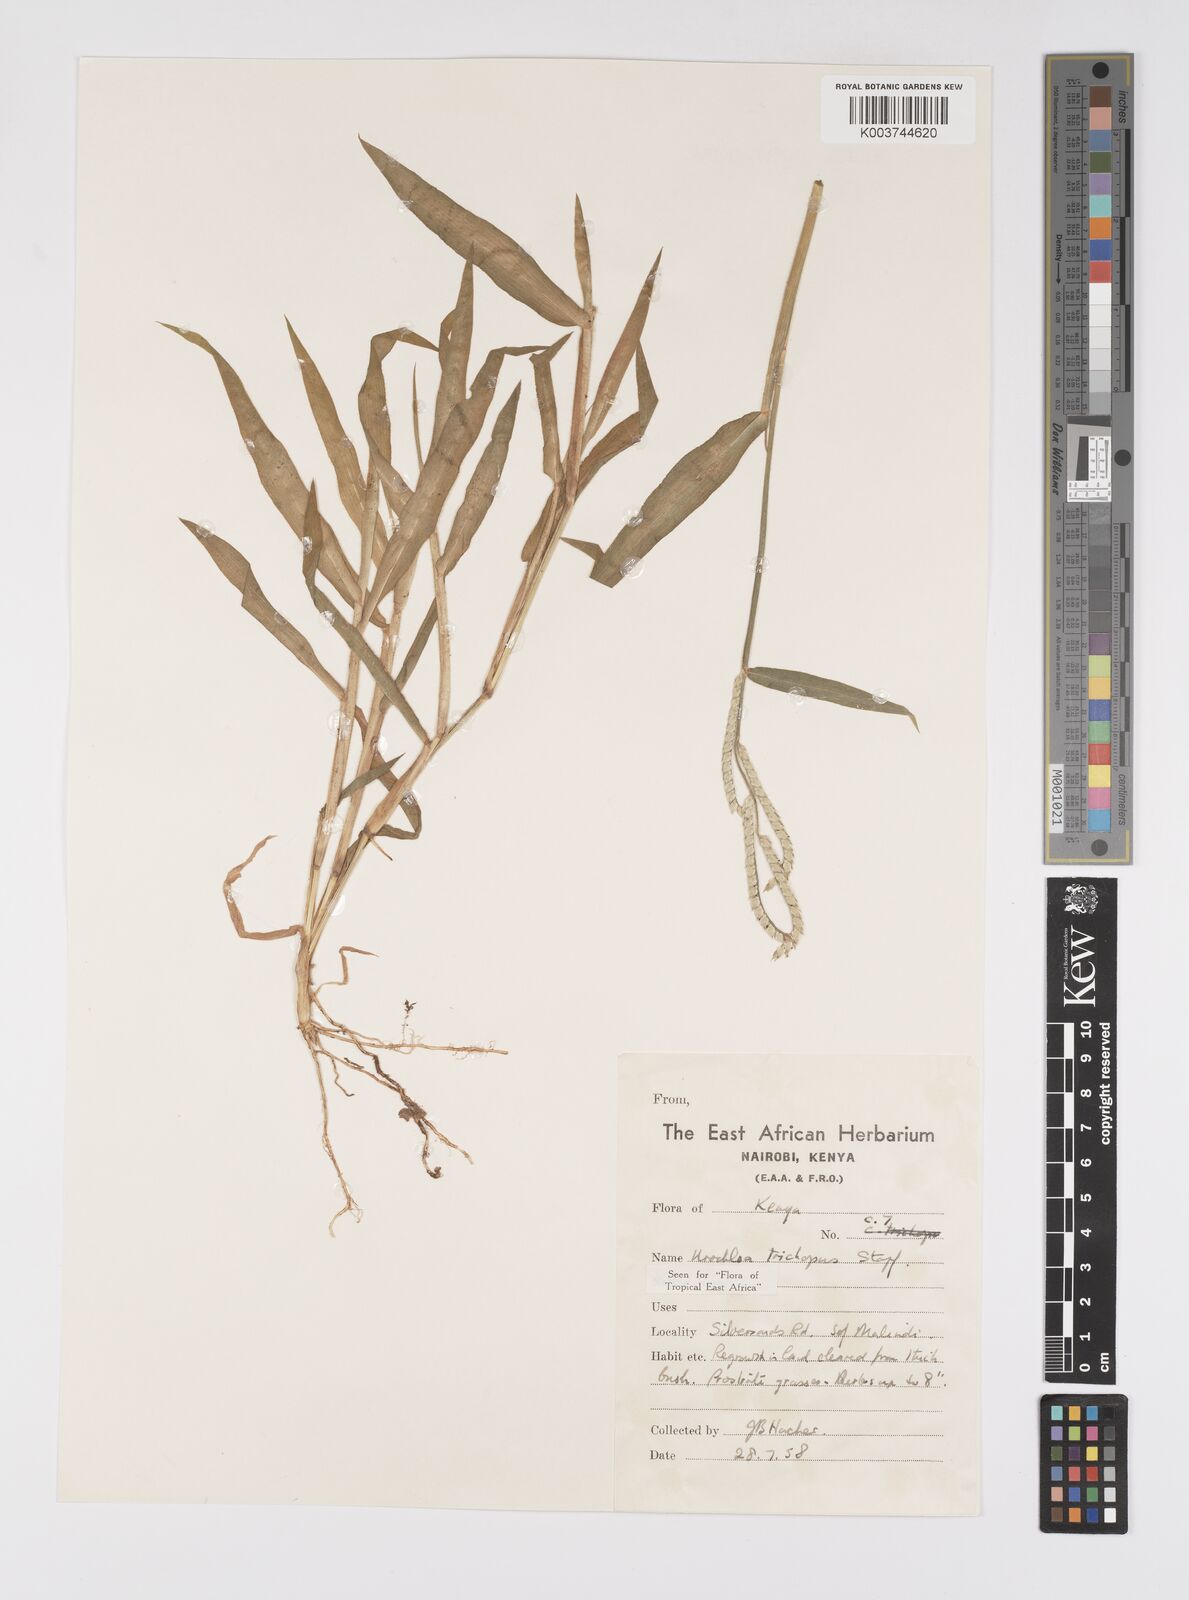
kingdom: Plantae
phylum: Tracheophyta
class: Liliopsida
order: Poales
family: Poaceae
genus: Urochloa
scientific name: Urochloa trichopus
